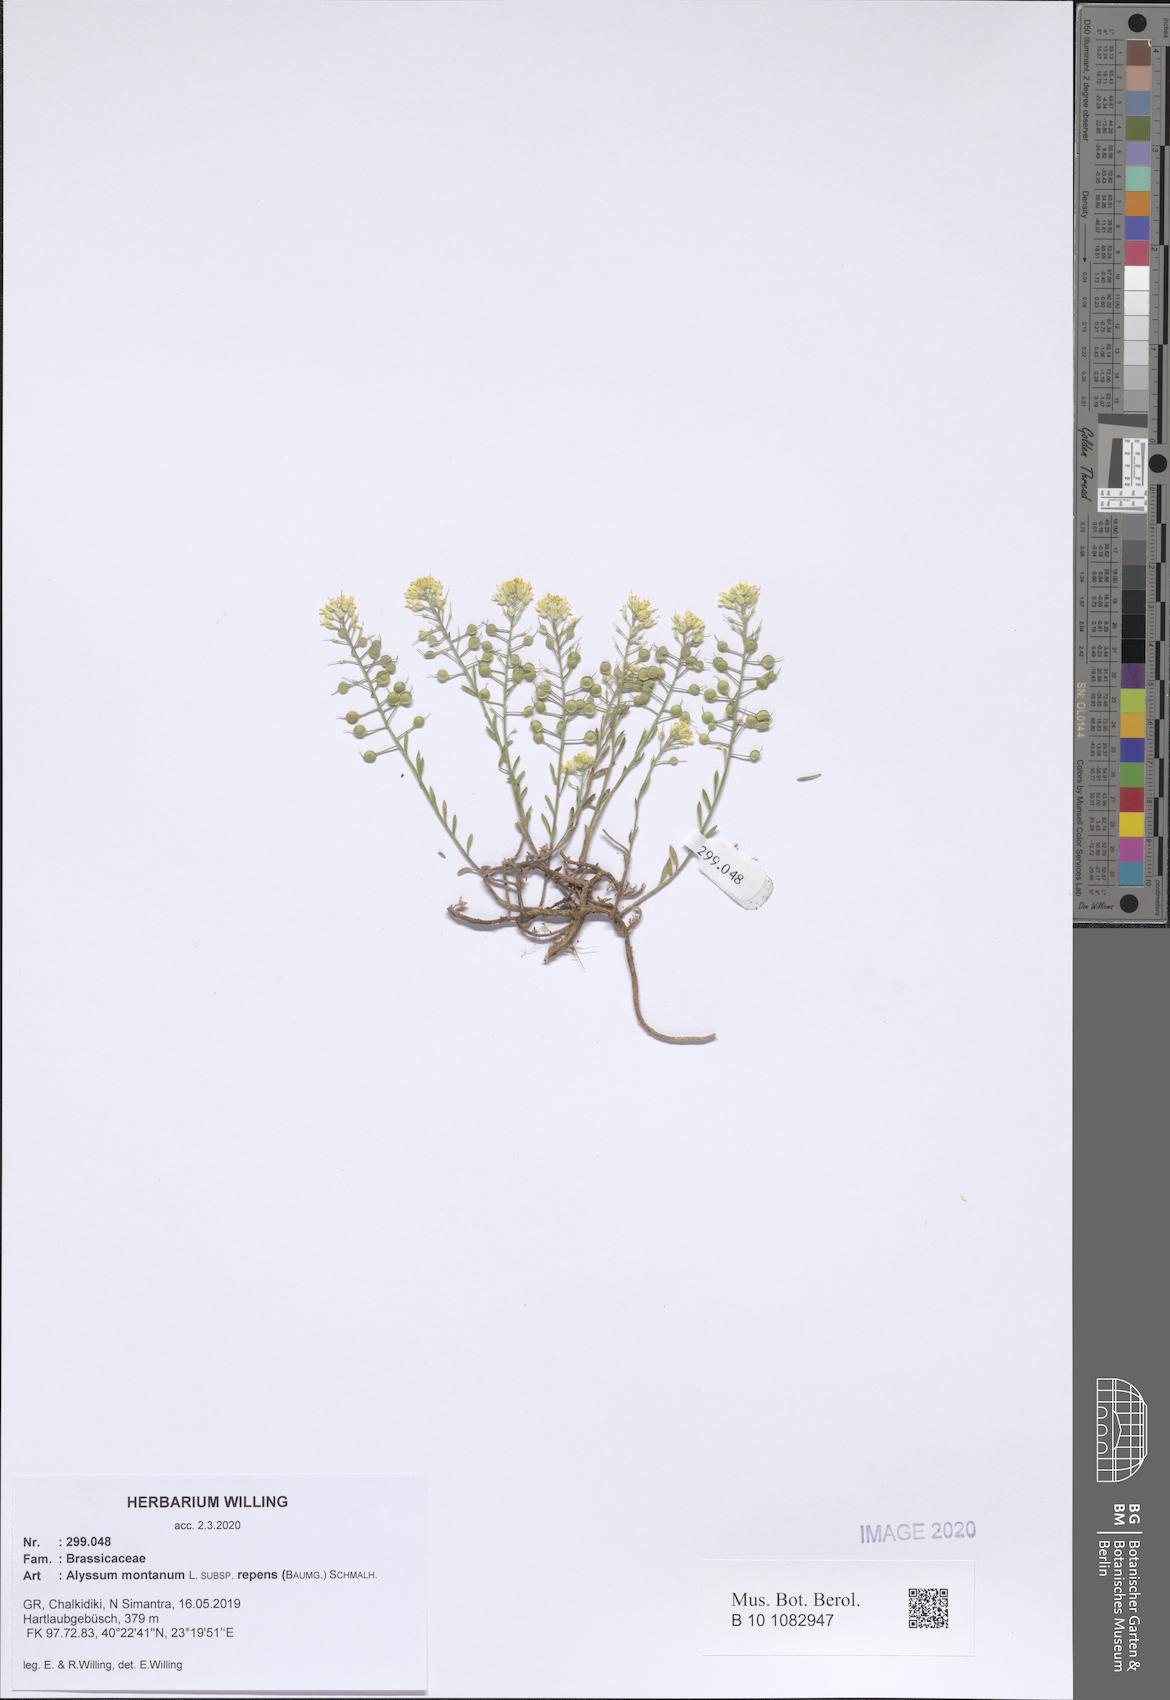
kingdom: Plantae
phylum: Tracheophyta
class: Magnoliopsida
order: Brassicales
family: Brassicaceae
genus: Alyssum
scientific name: Alyssum trichostachyum
